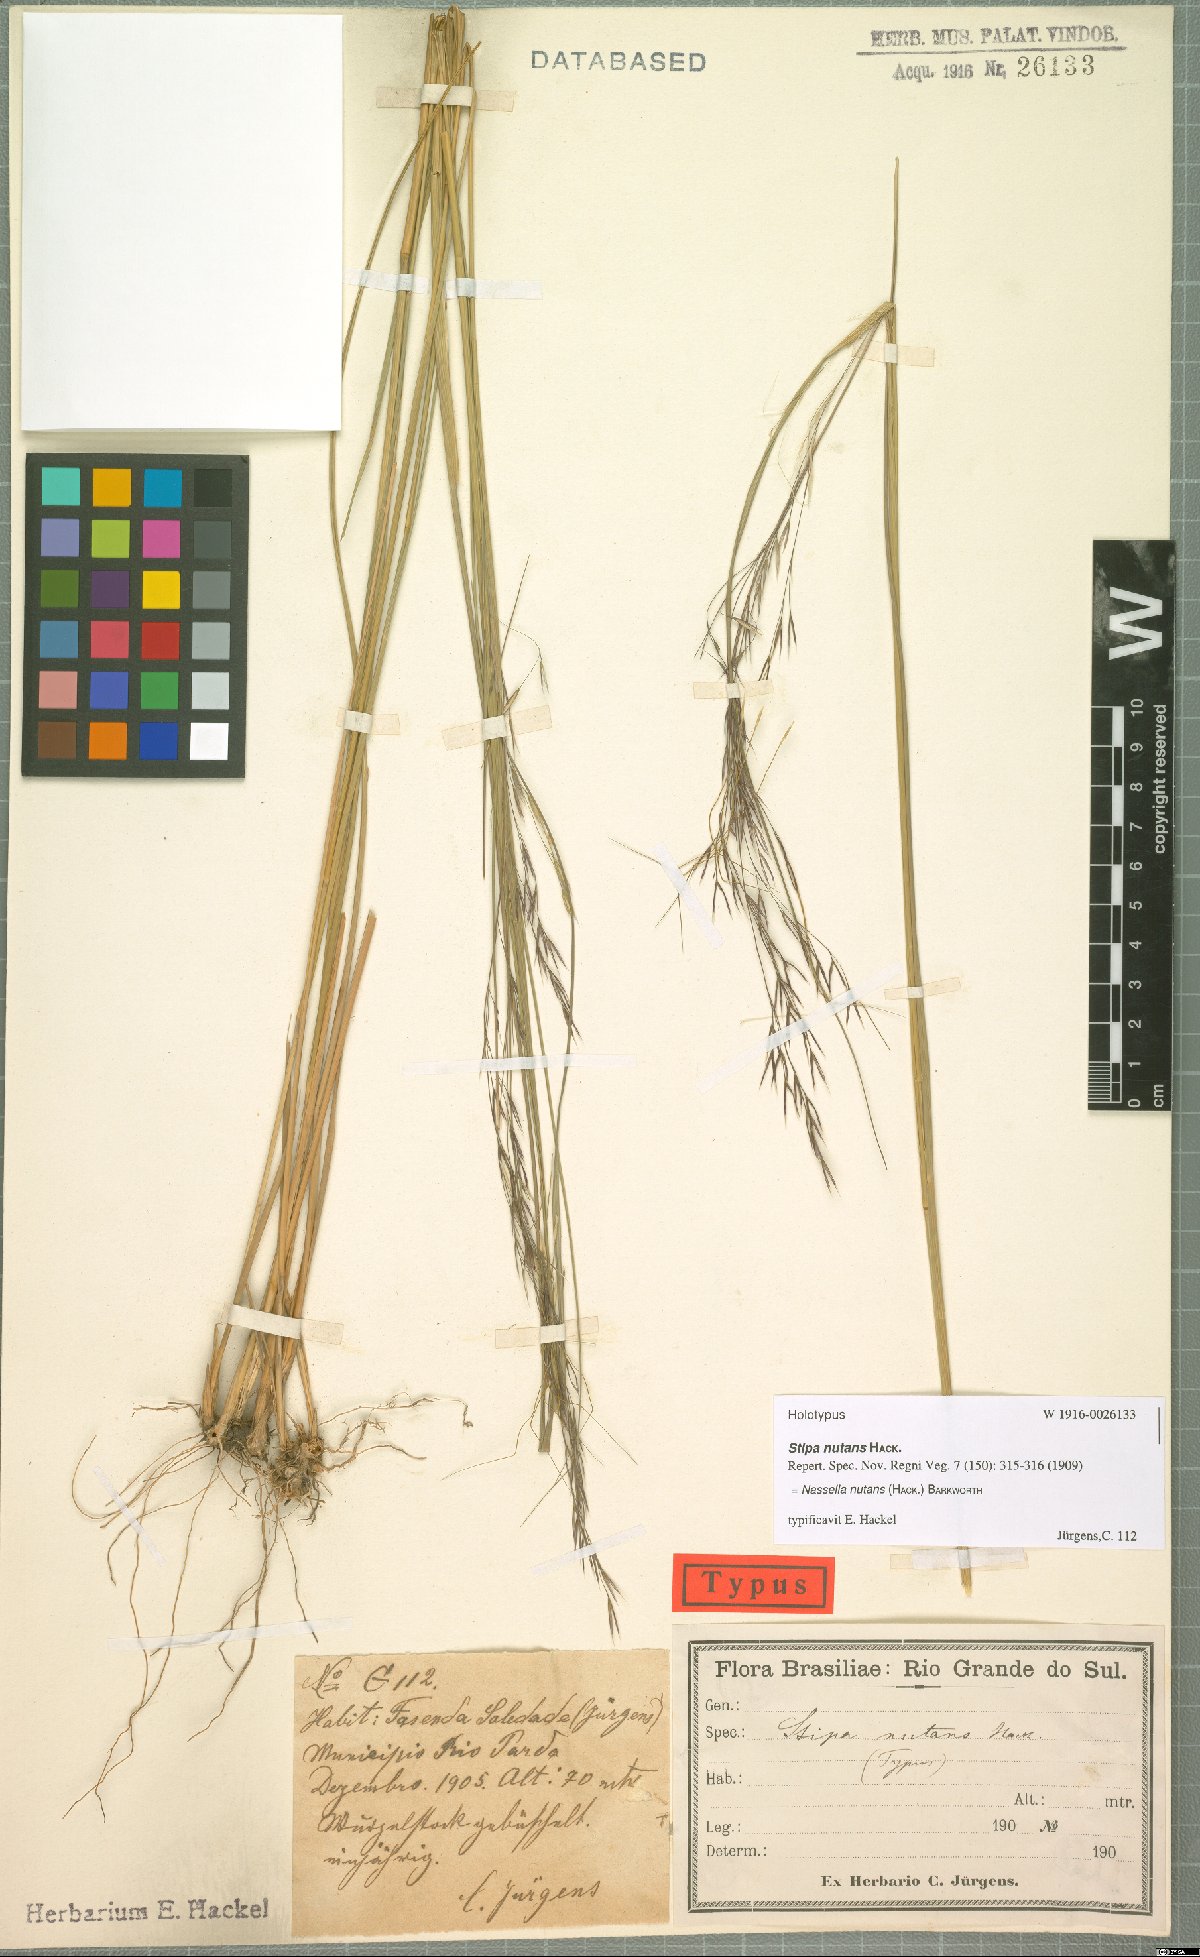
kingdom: Plantae
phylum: Tracheophyta
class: Liliopsida
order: Poales
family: Poaceae
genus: Nassella
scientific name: Nassella nutans
